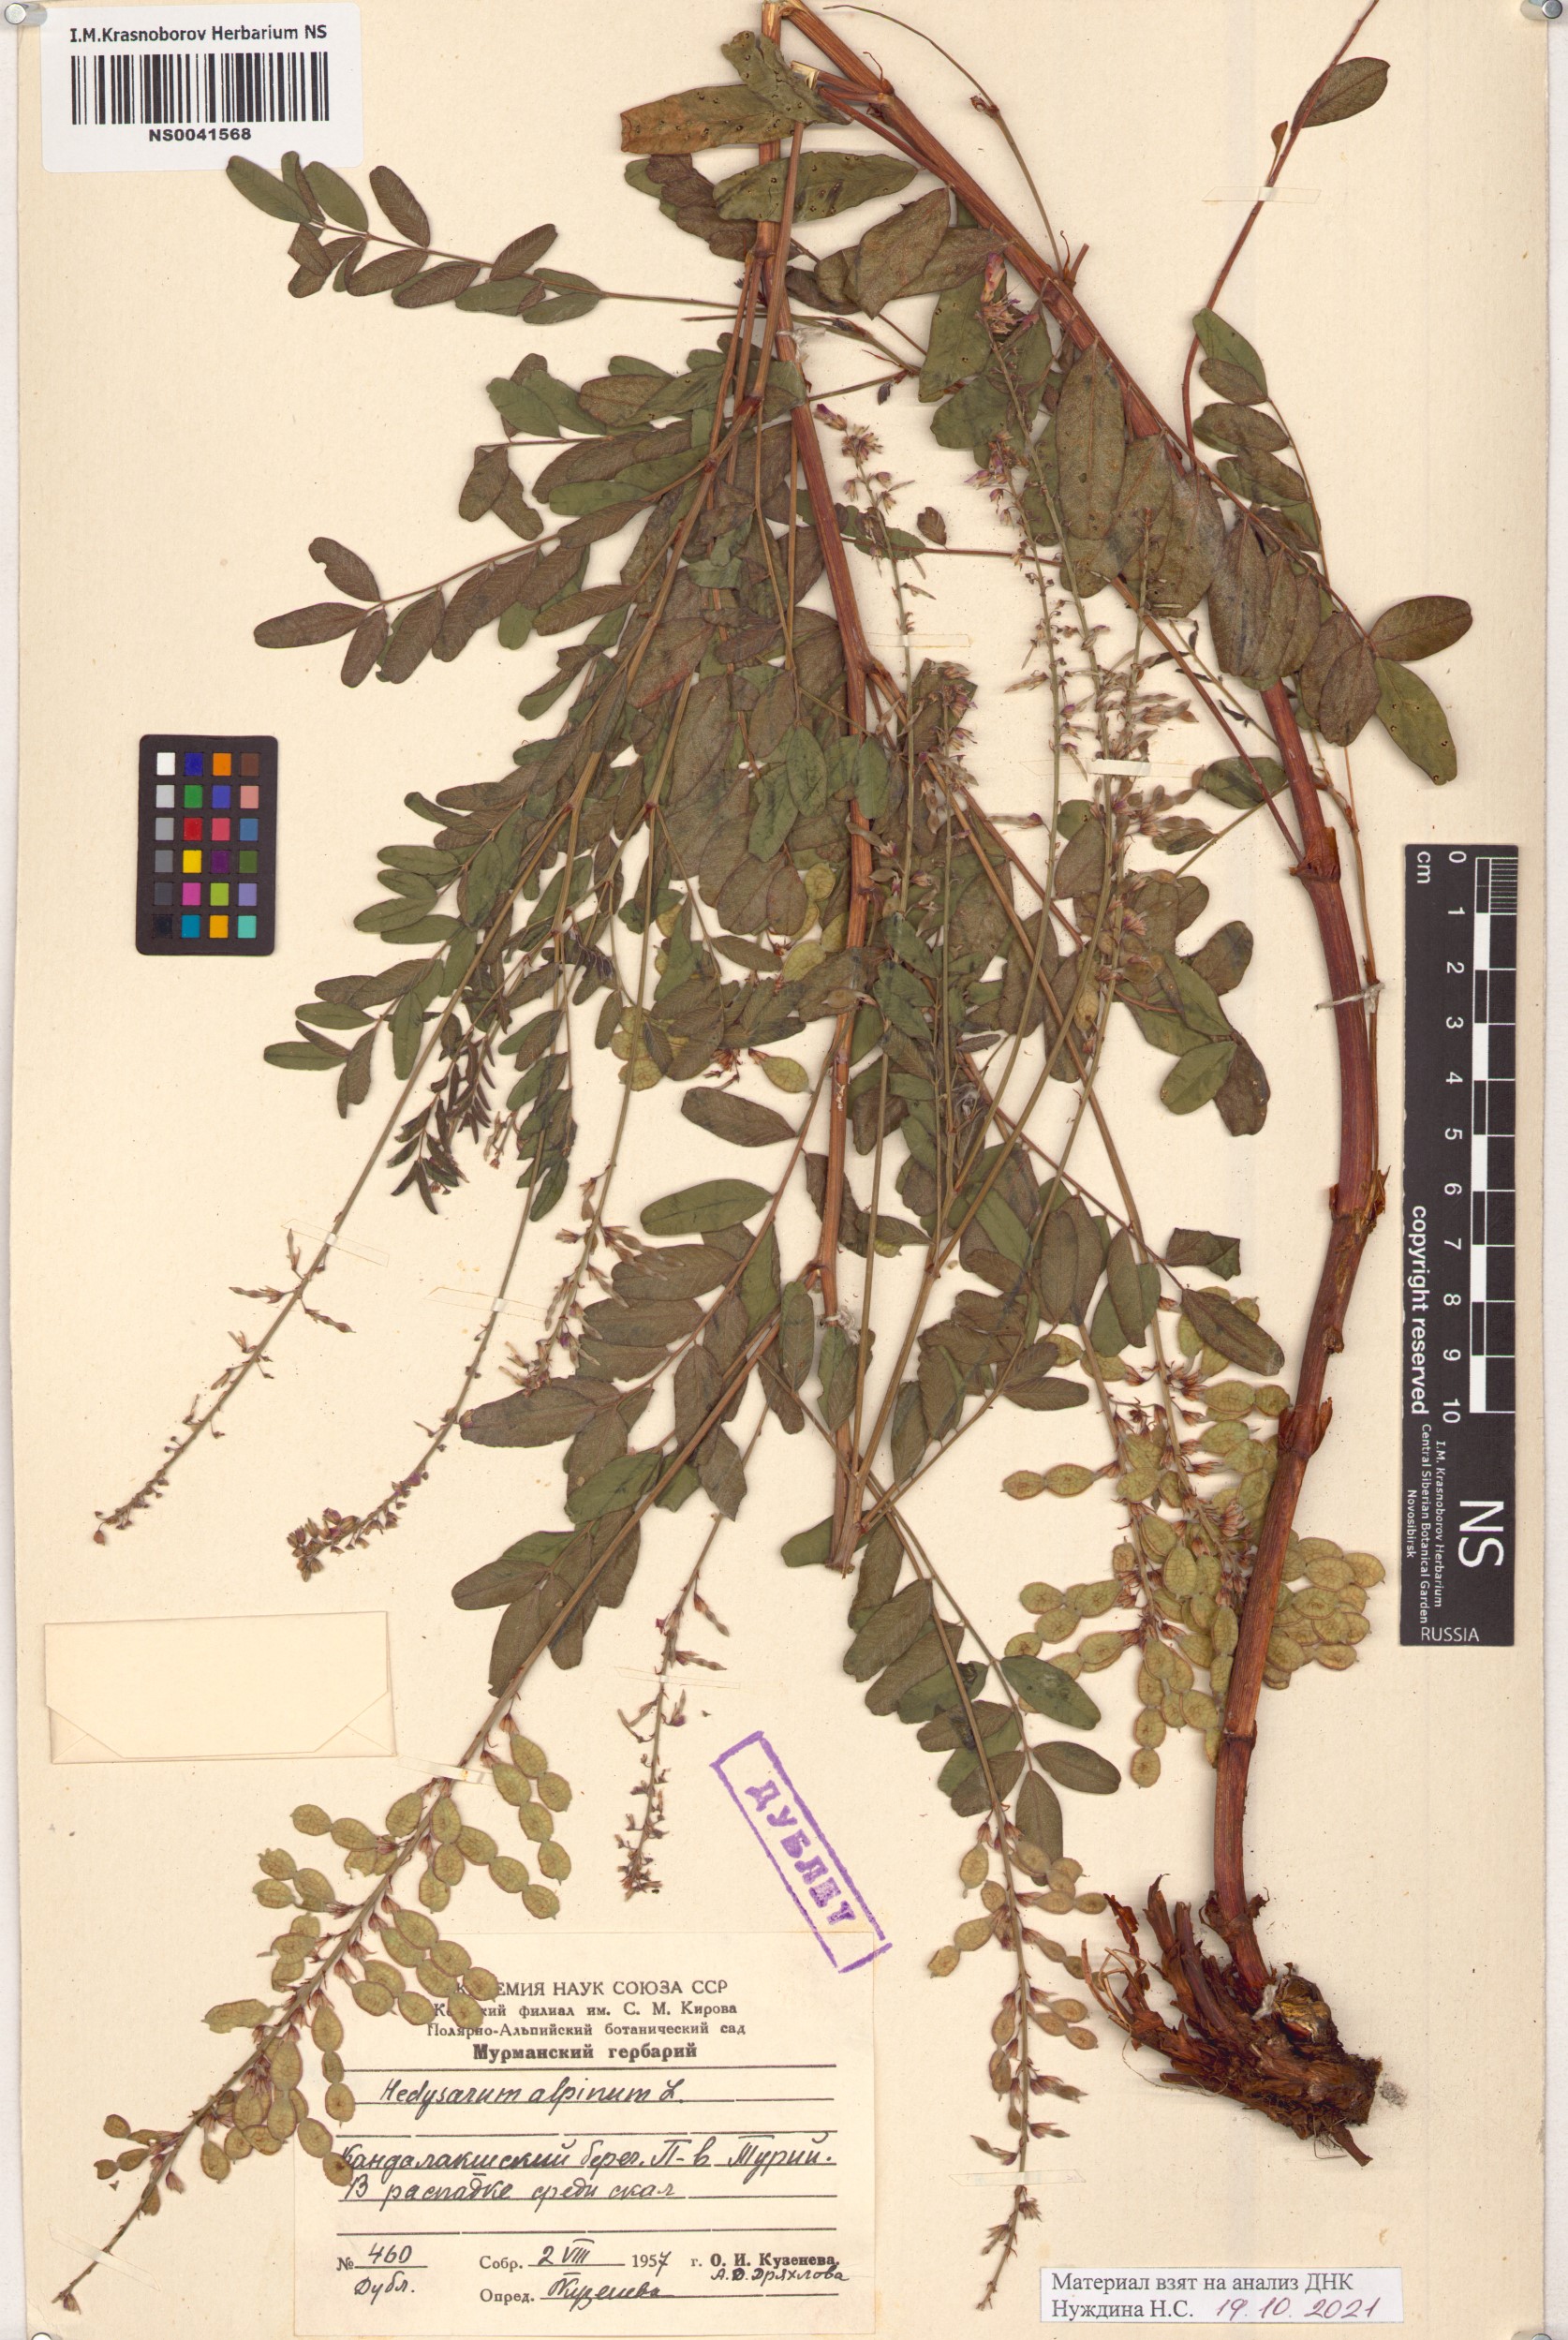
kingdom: Plantae
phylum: Tracheophyta
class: Magnoliopsida
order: Fabales
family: Fabaceae
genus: Hedysarum
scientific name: Hedysarum alpinum
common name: Alpine sweet-vetch
